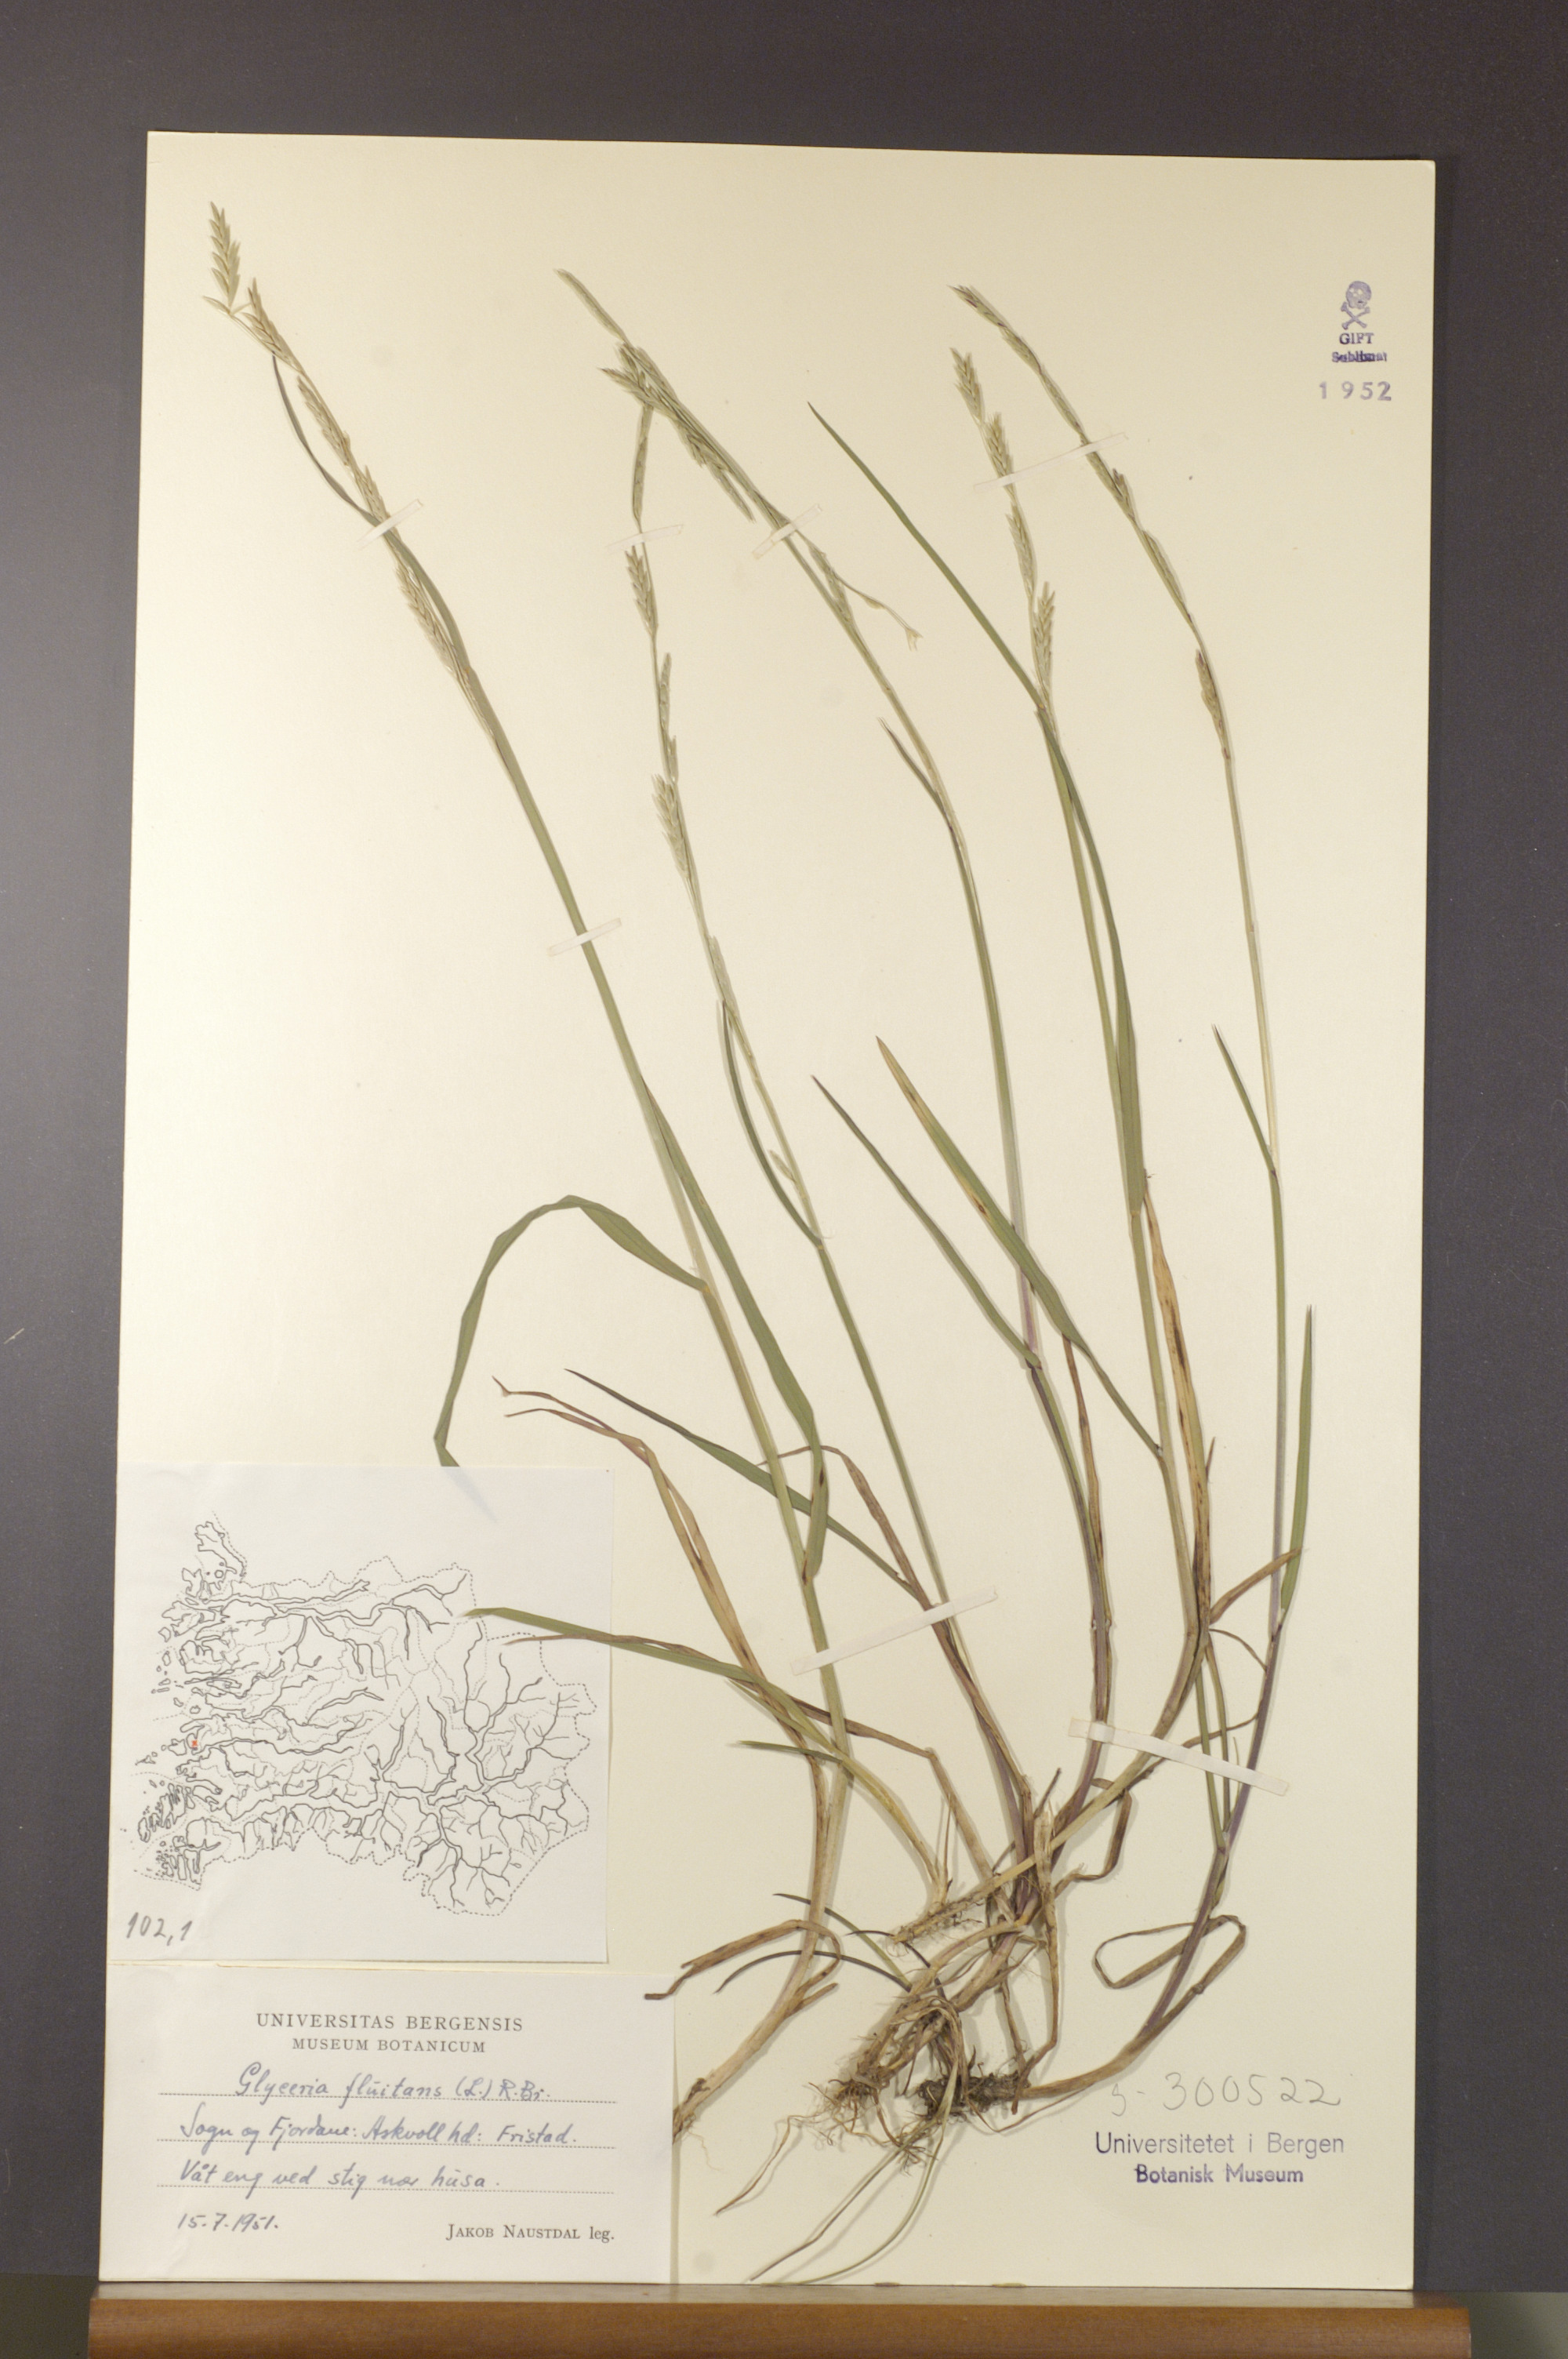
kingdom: Plantae
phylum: Tracheophyta
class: Liliopsida
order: Poales
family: Poaceae
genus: Glyceria
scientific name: Glyceria fluitans
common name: Floating sweet-grass
